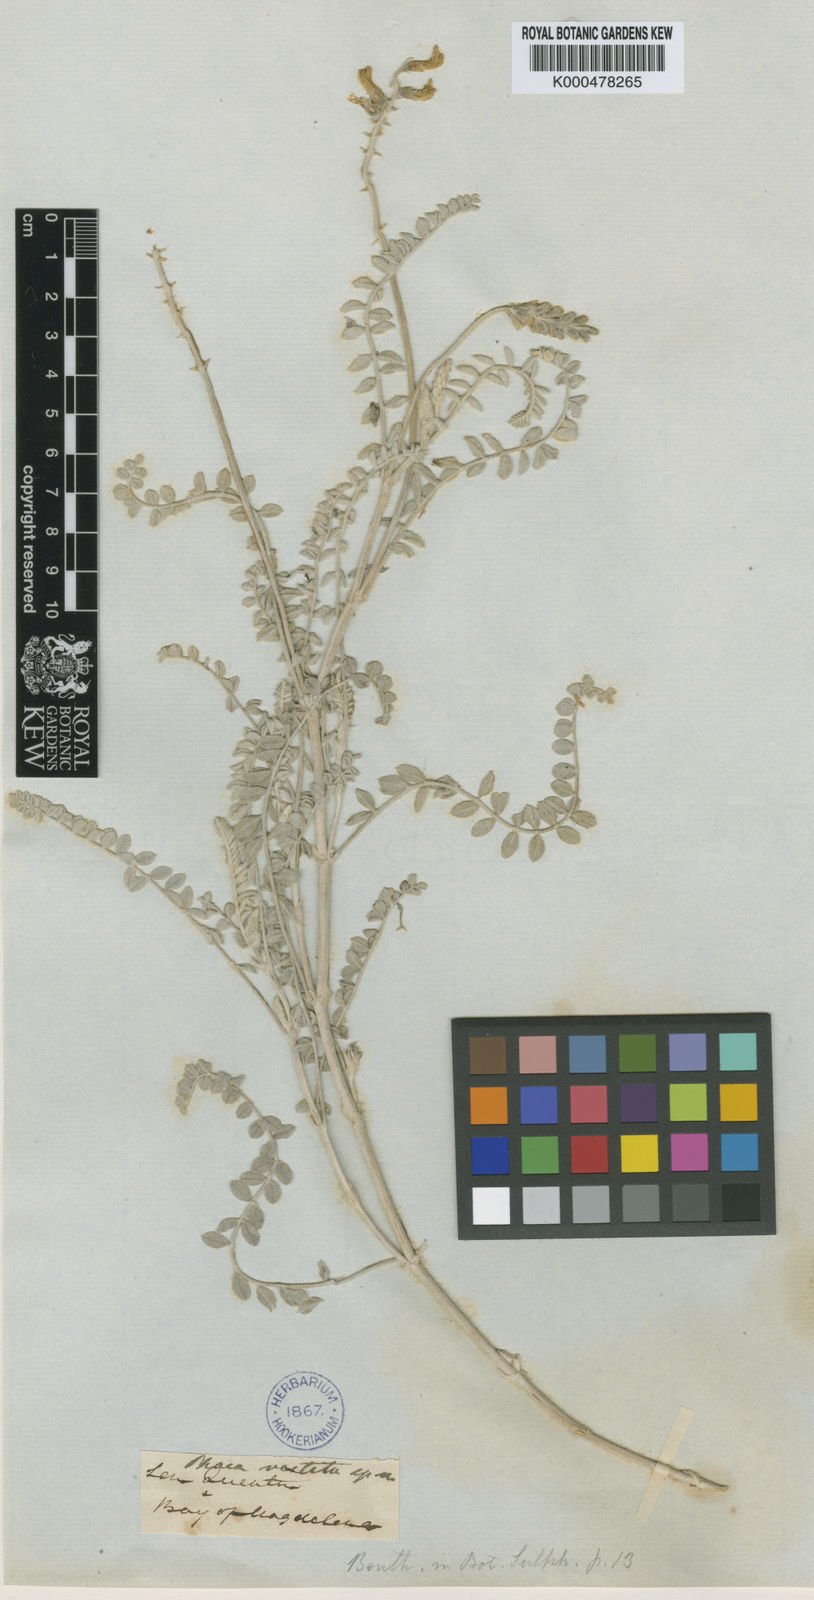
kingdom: Plantae
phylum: Tracheophyta
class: Magnoliopsida
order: Fabales
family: Fabaceae
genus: Astragalus
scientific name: Astragalus crotalariae
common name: Salton milkvetch
